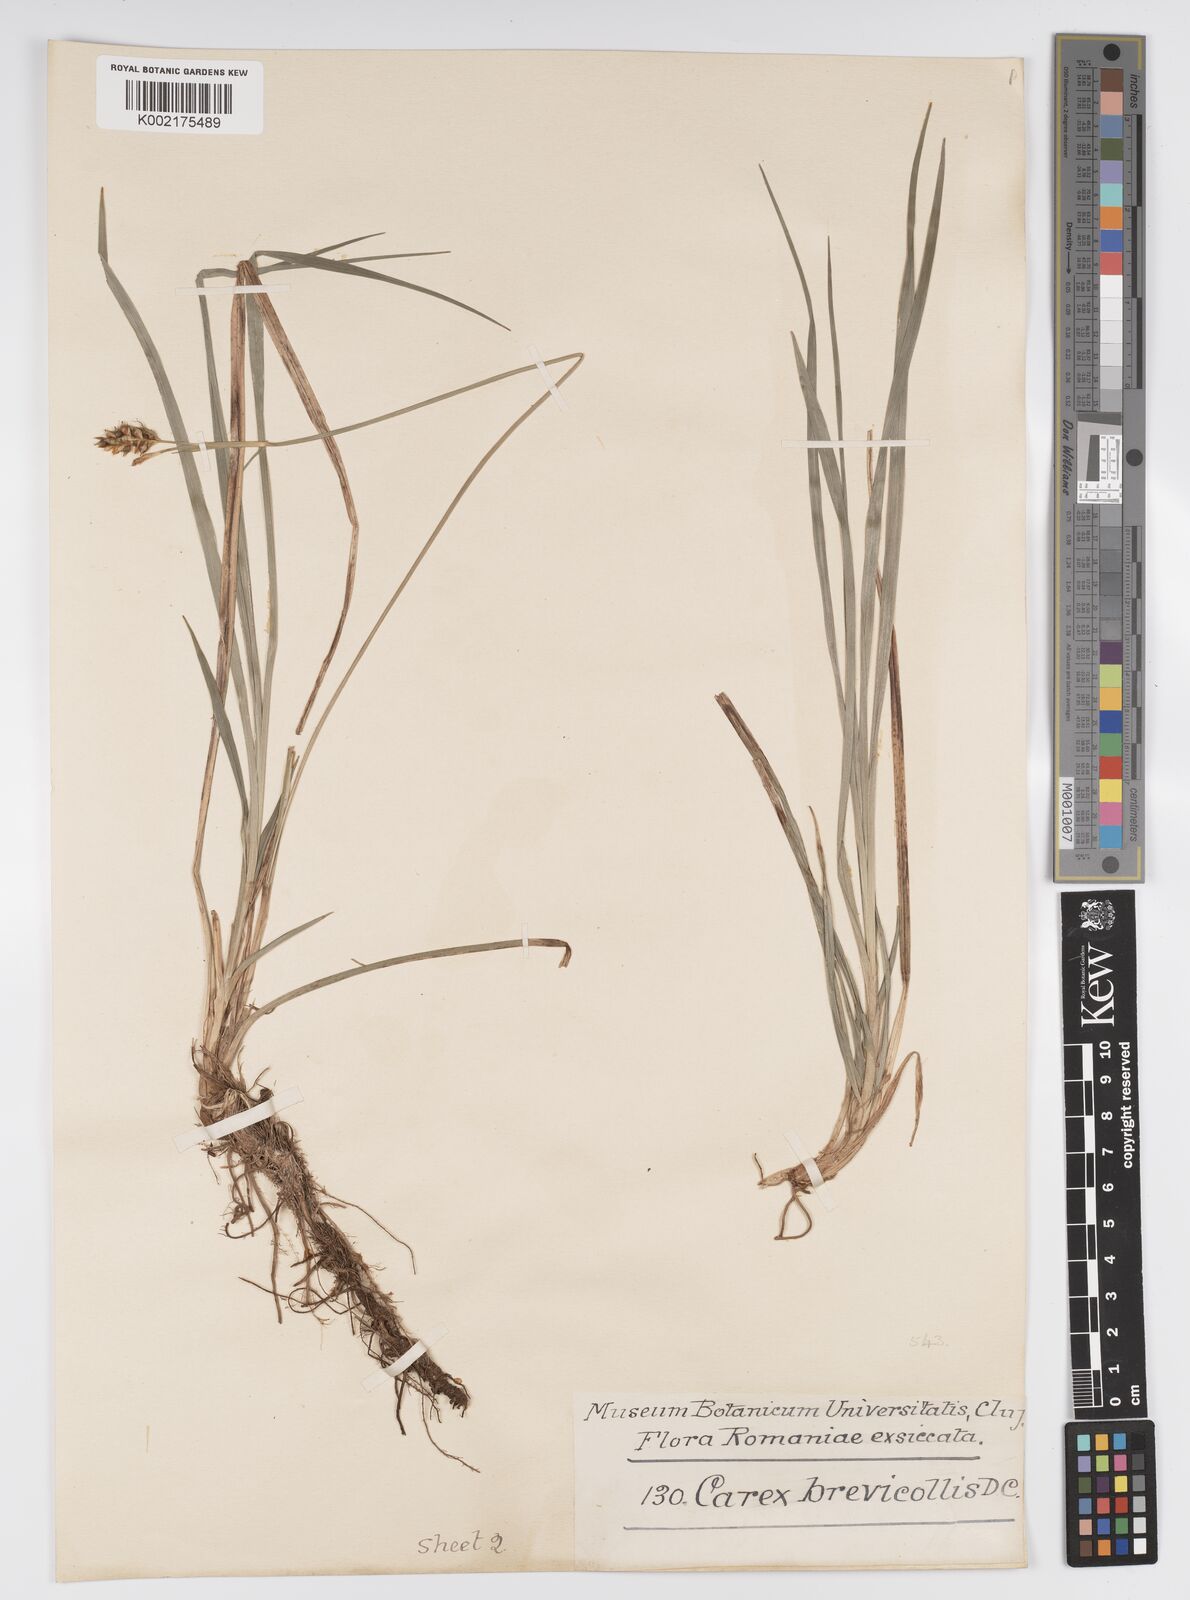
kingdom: Plantae
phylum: Tracheophyta
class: Liliopsida
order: Poales
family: Cyperaceae
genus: Carex
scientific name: Carex brevicollis
